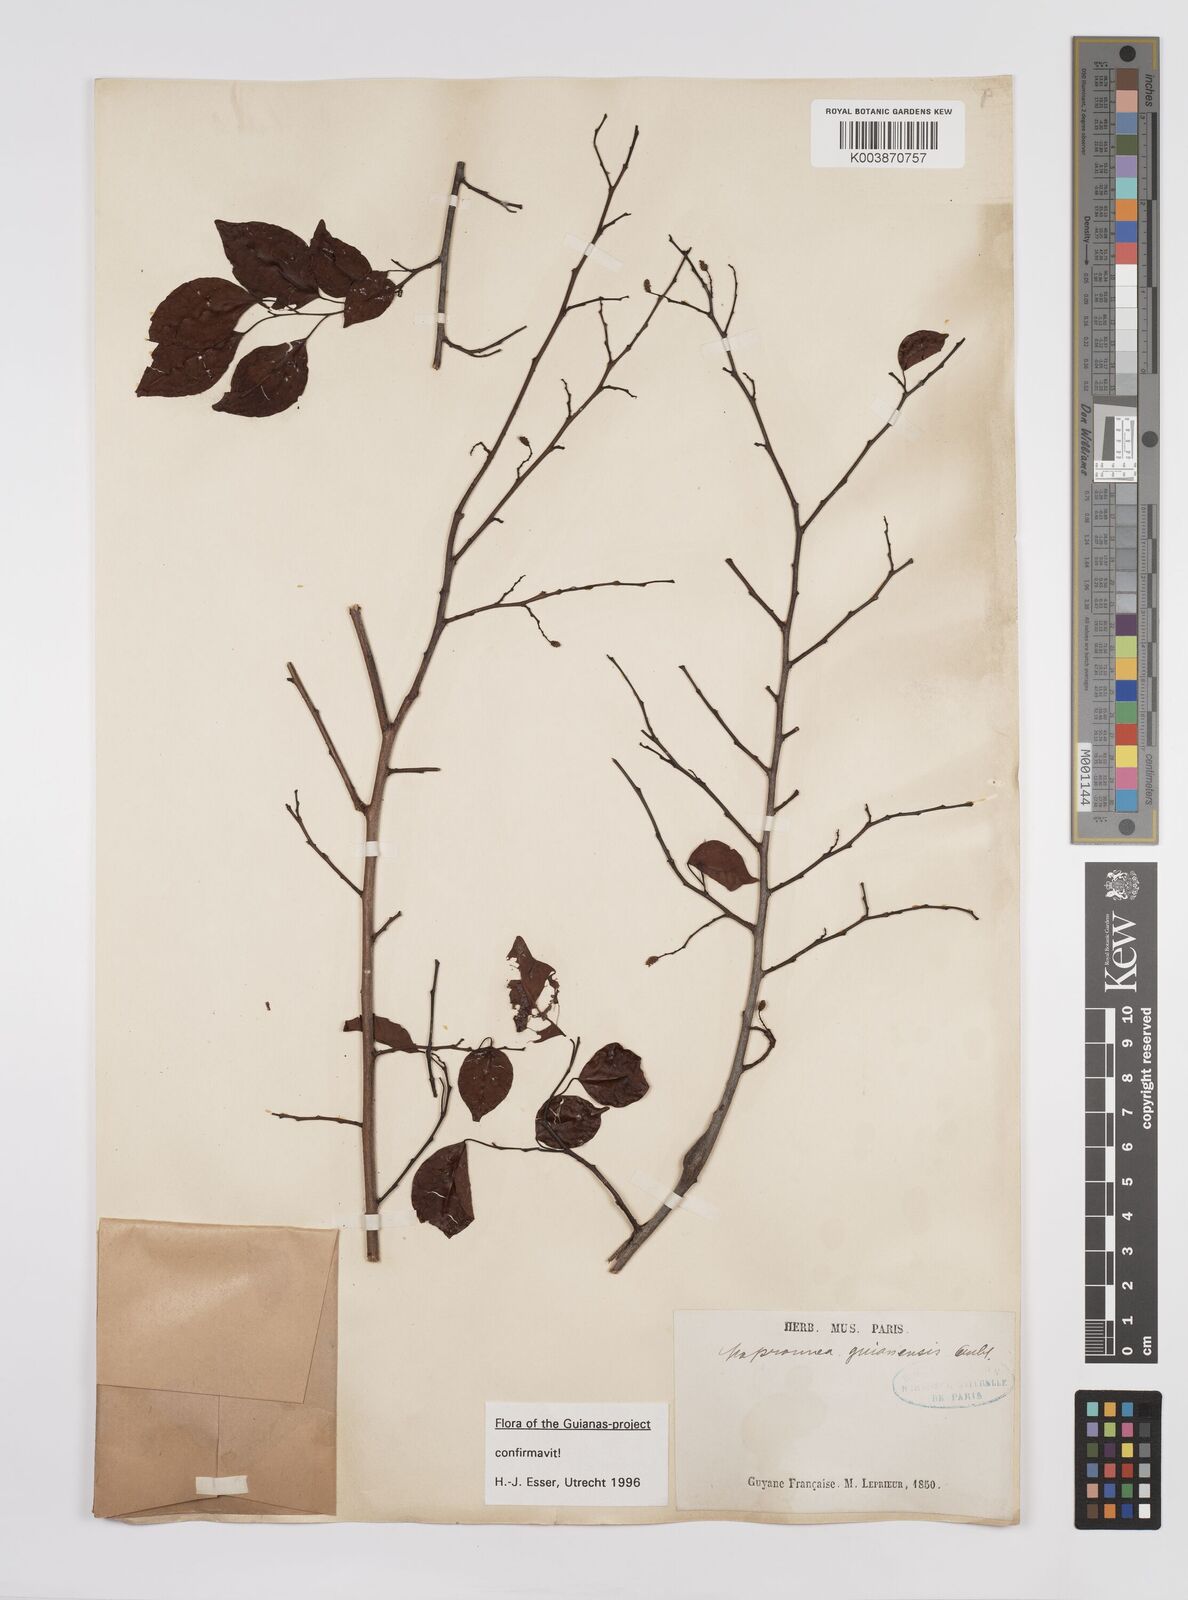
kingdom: Plantae
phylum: Tracheophyta
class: Magnoliopsida
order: Malpighiales
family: Euphorbiaceae
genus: Maprounea
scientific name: Maprounea guianensis
